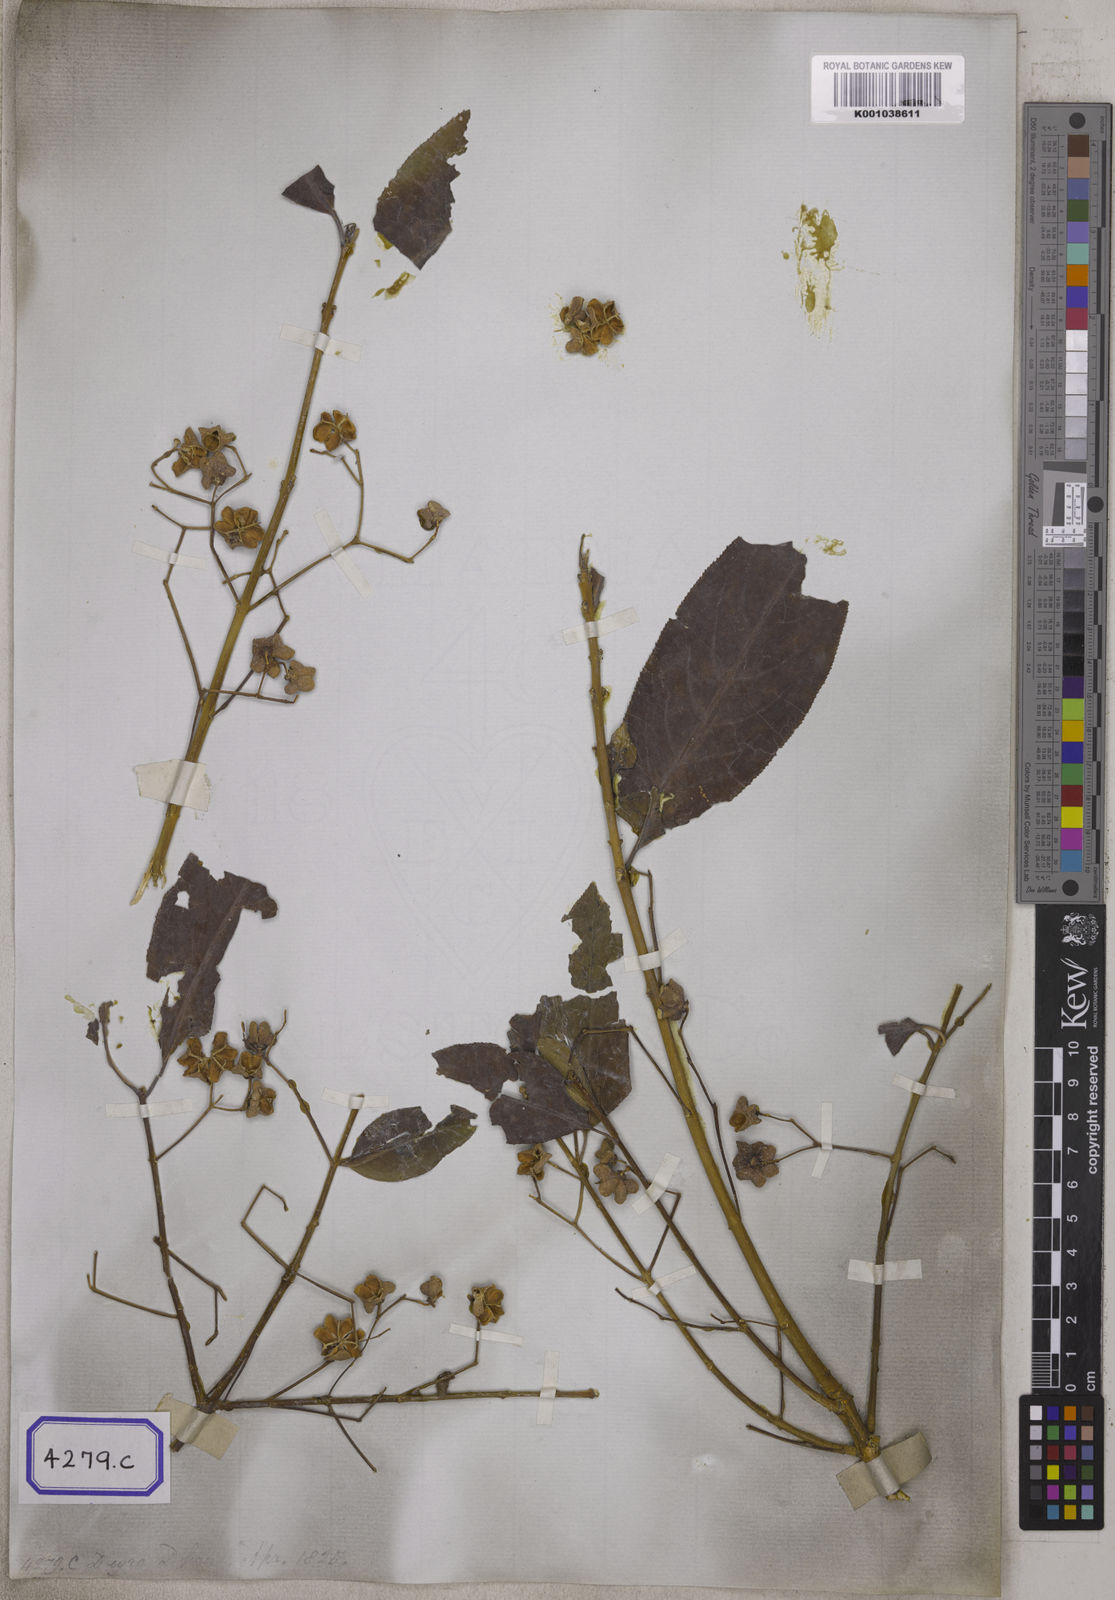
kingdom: Plantae
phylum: Tracheophyta
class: Magnoliopsida
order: Celastrales
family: Celastraceae
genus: Euonymus
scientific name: Euonymus hamiltonianus
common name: Hamilton's spindletree
